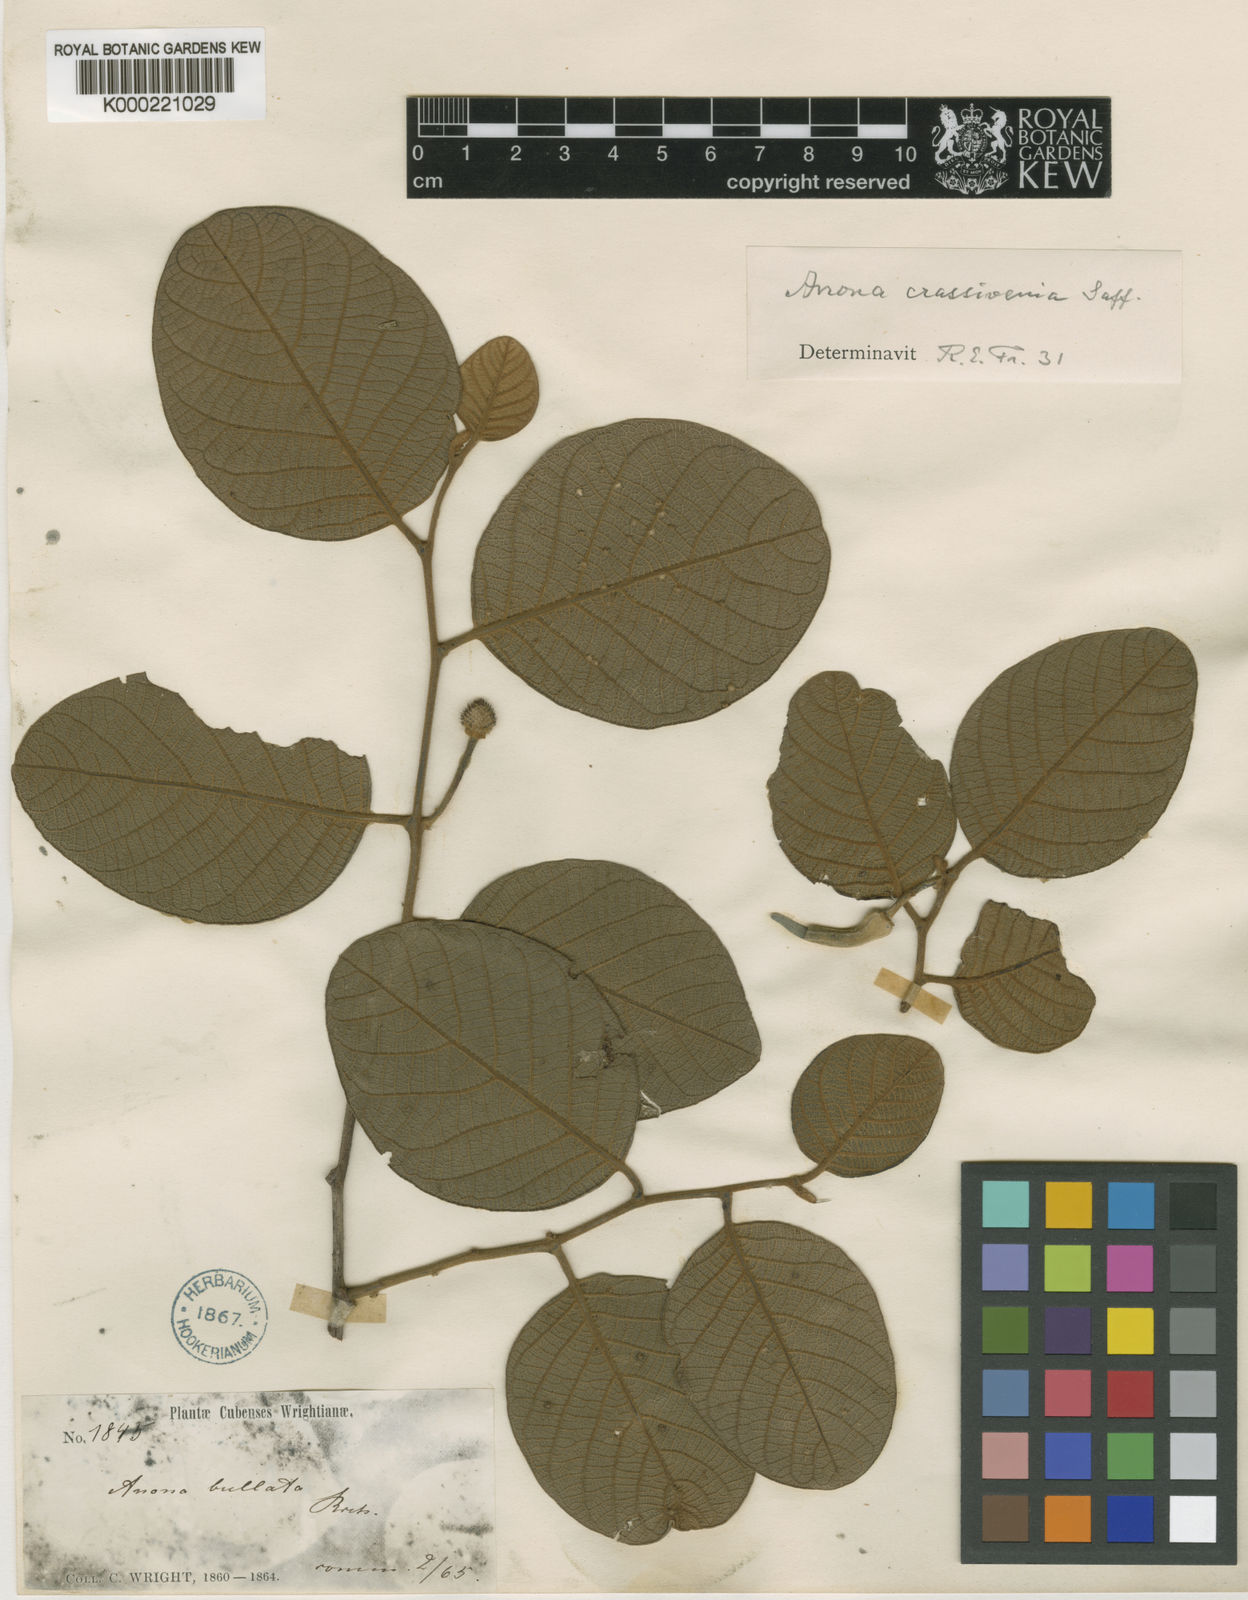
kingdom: Plantae
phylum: Tracheophyta
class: Magnoliopsida
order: Magnoliales
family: Annonaceae
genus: Annona
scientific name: Annona crassivenia
